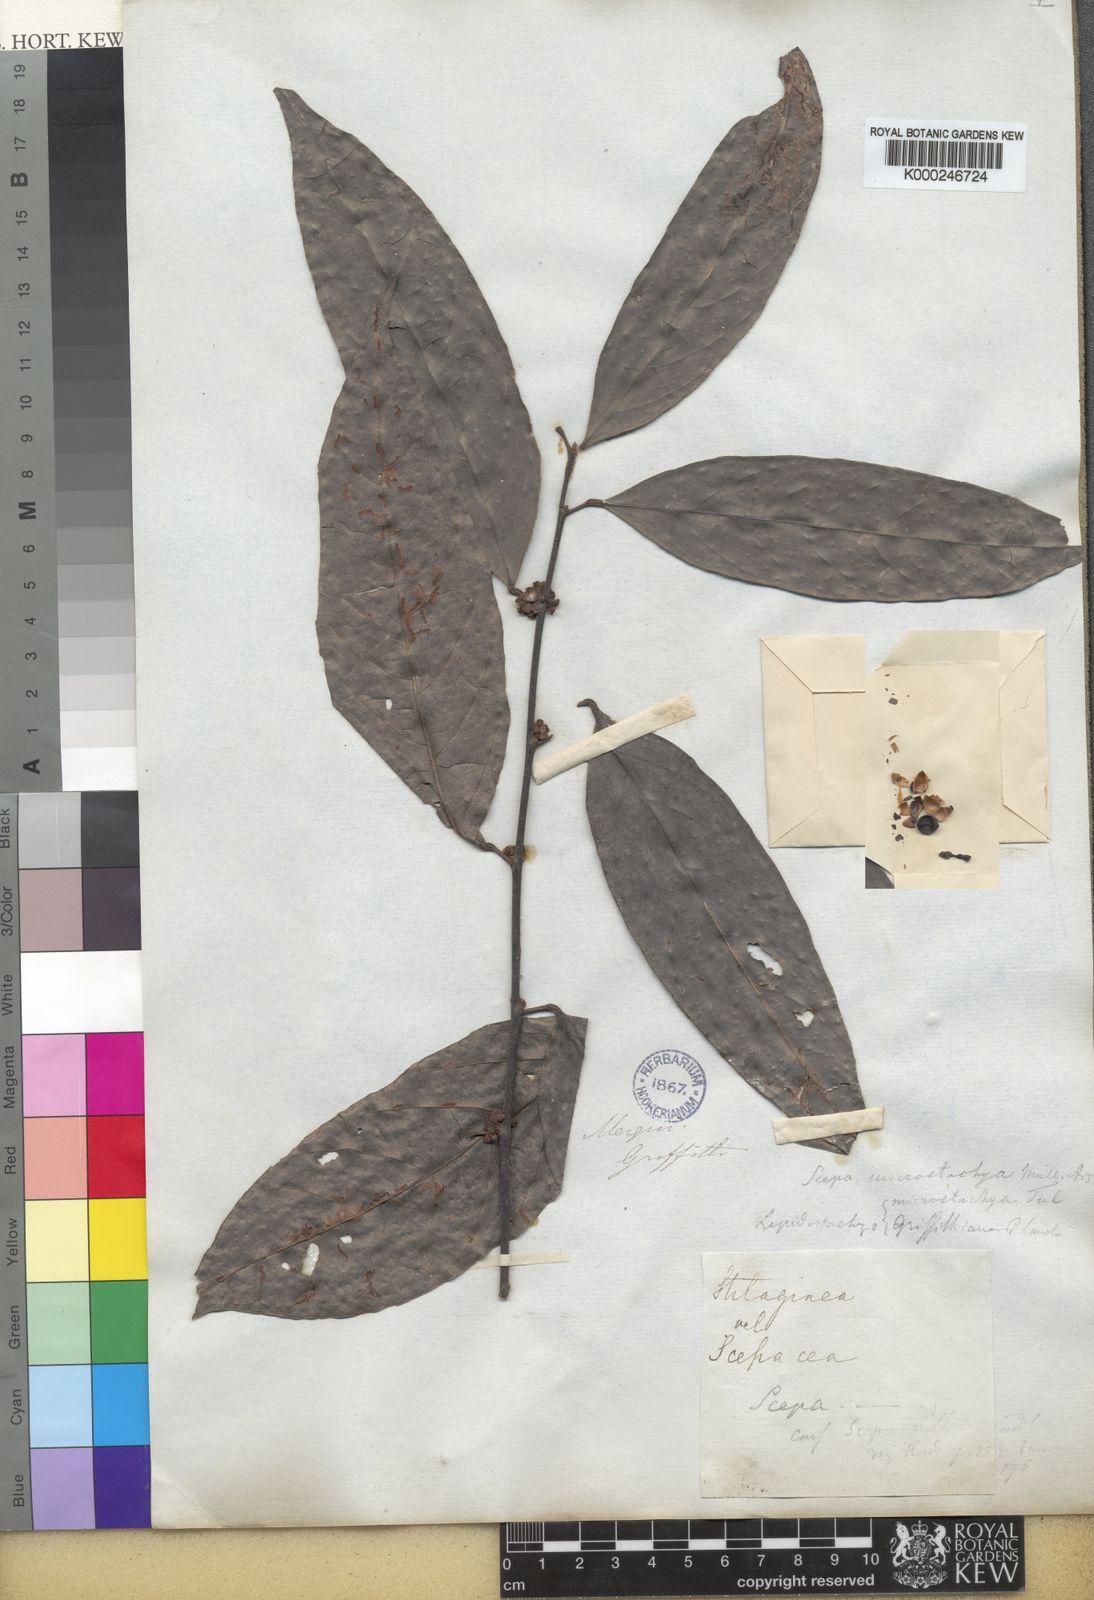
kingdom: Plantae
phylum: Tracheophyta
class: Magnoliopsida
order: Malpighiales
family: Phyllanthaceae
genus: Aporosa
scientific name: Aporosa
